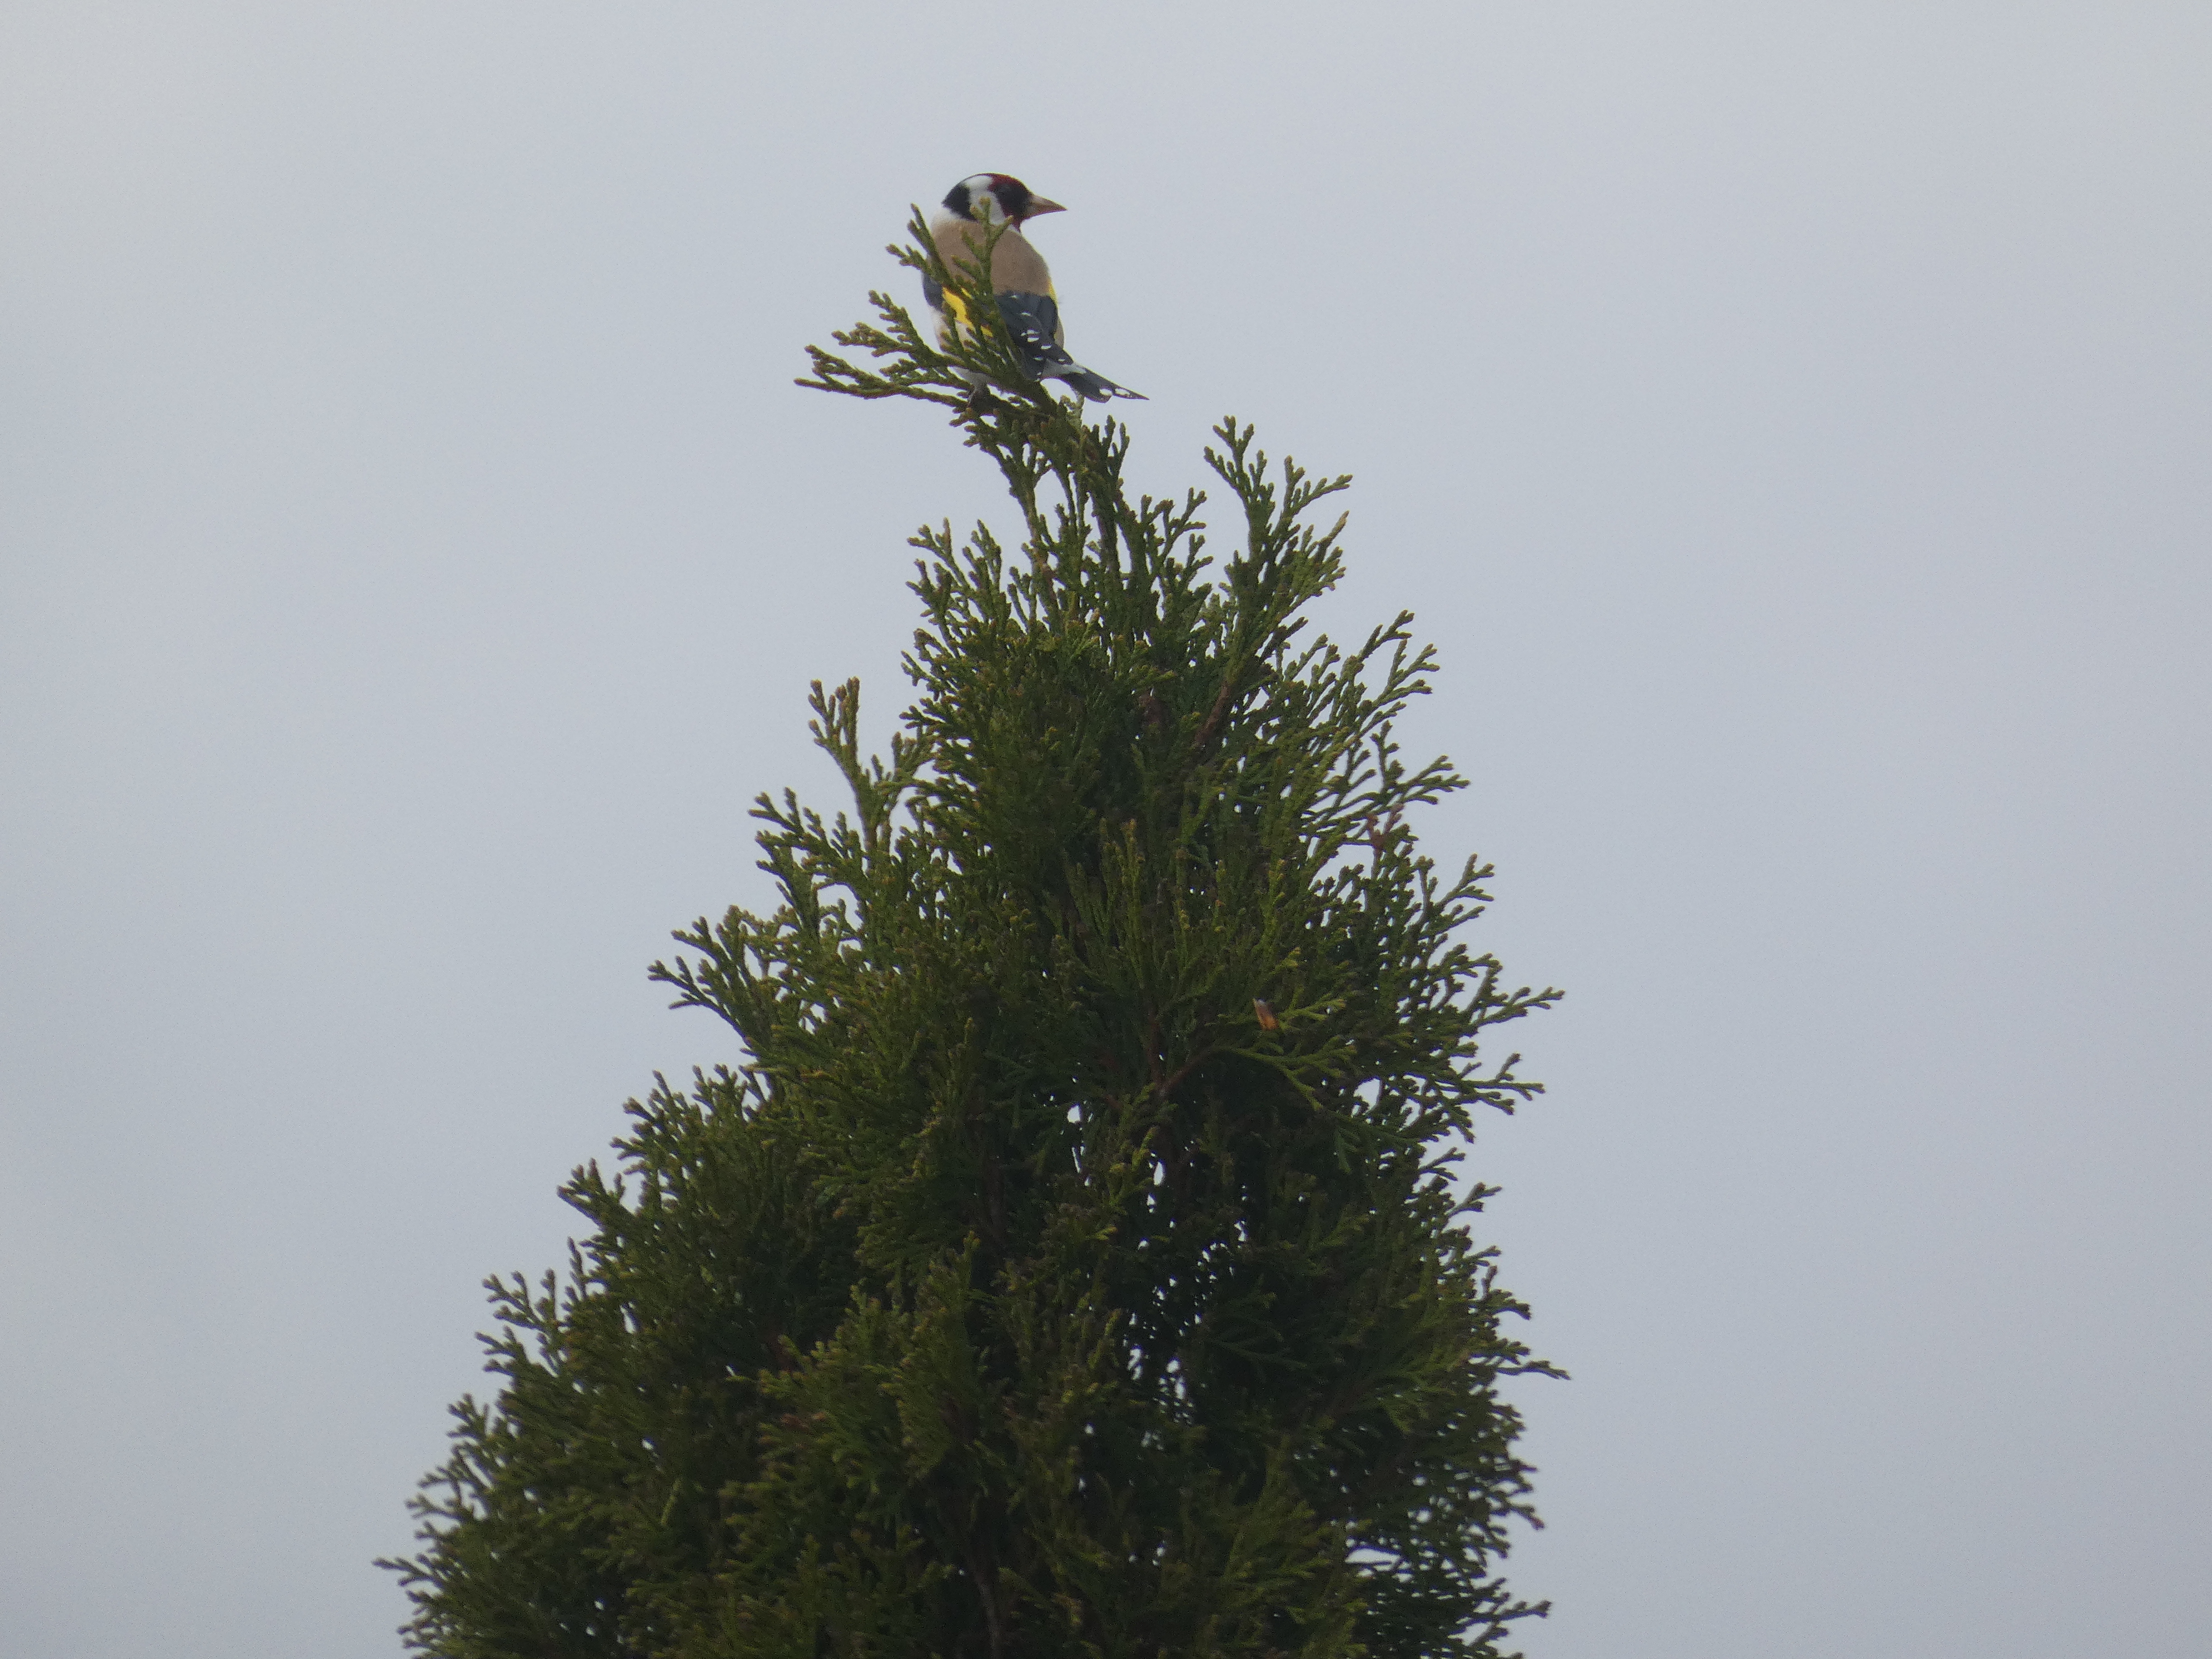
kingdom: Animalia
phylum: Chordata
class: Aves
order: Passeriformes
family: Fringillidae
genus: Carduelis
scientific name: Carduelis carduelis
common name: Stillits
